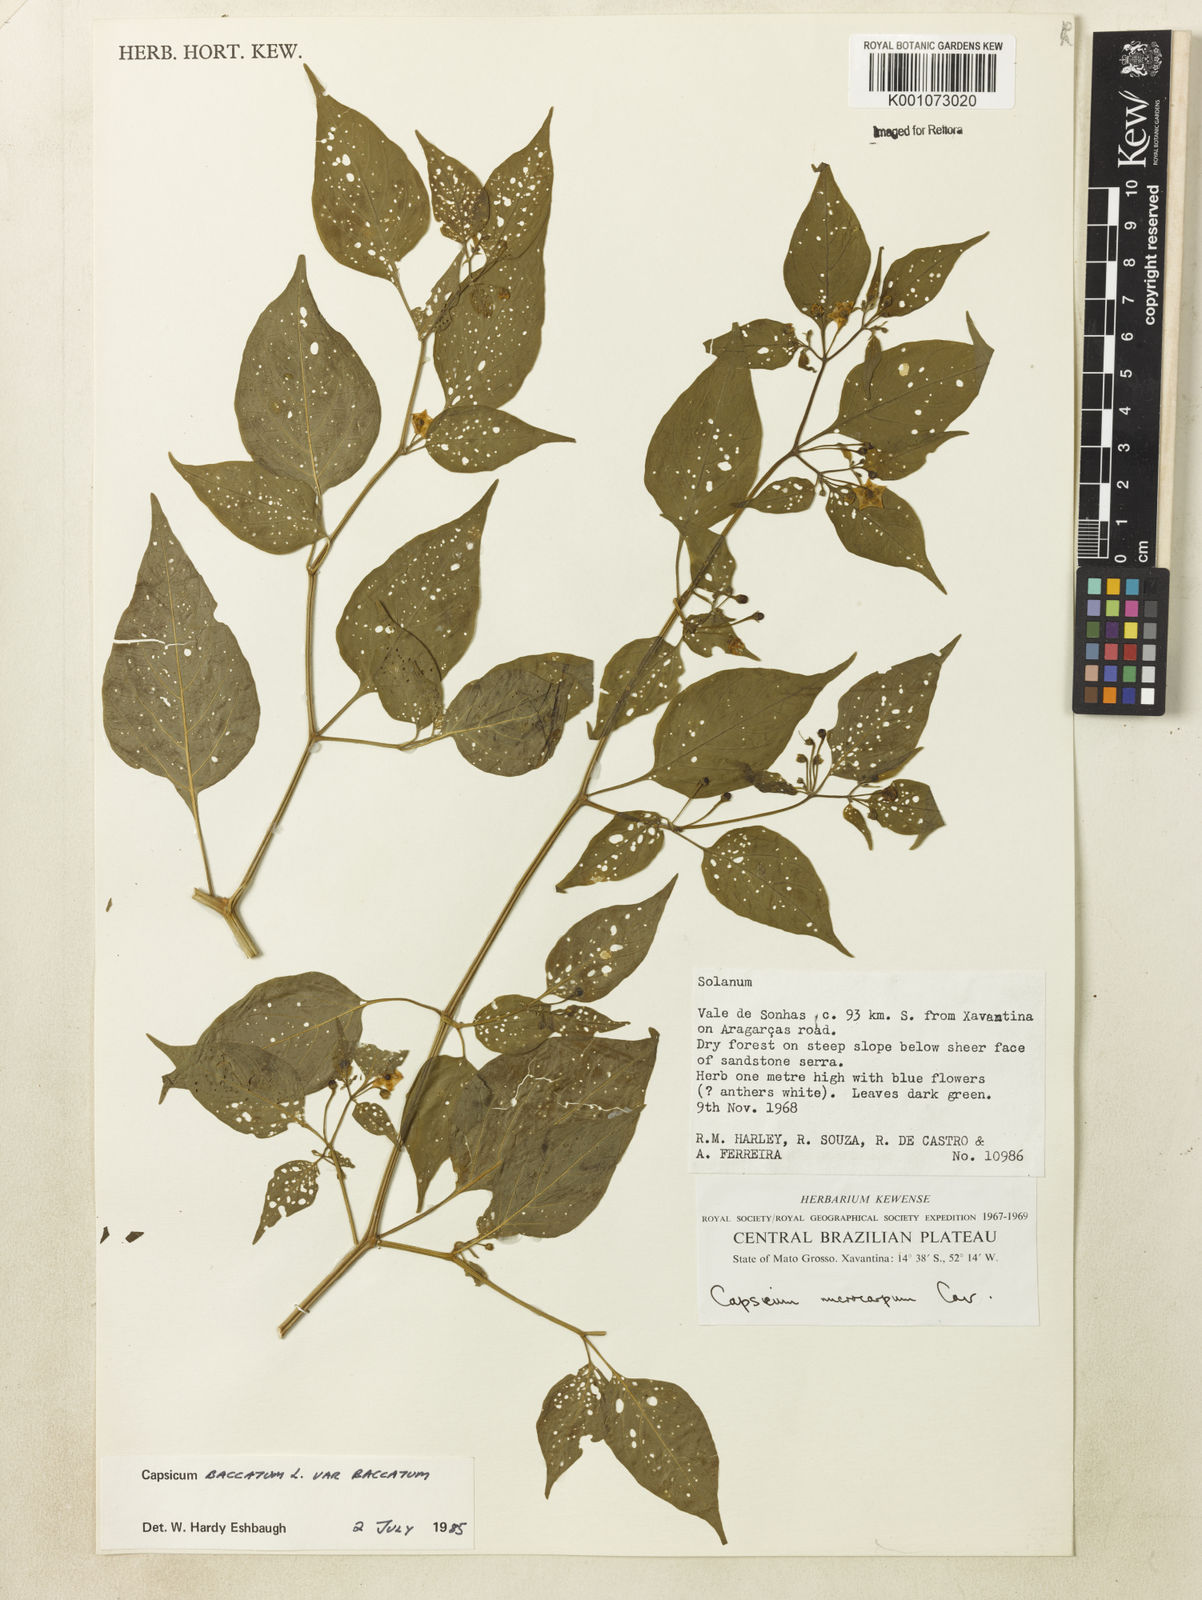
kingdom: Plantae
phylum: Tracheophyta
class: Magnoliopsida
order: Solanales
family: Solanaceae
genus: Capsicum
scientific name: Capsicum baccatum
